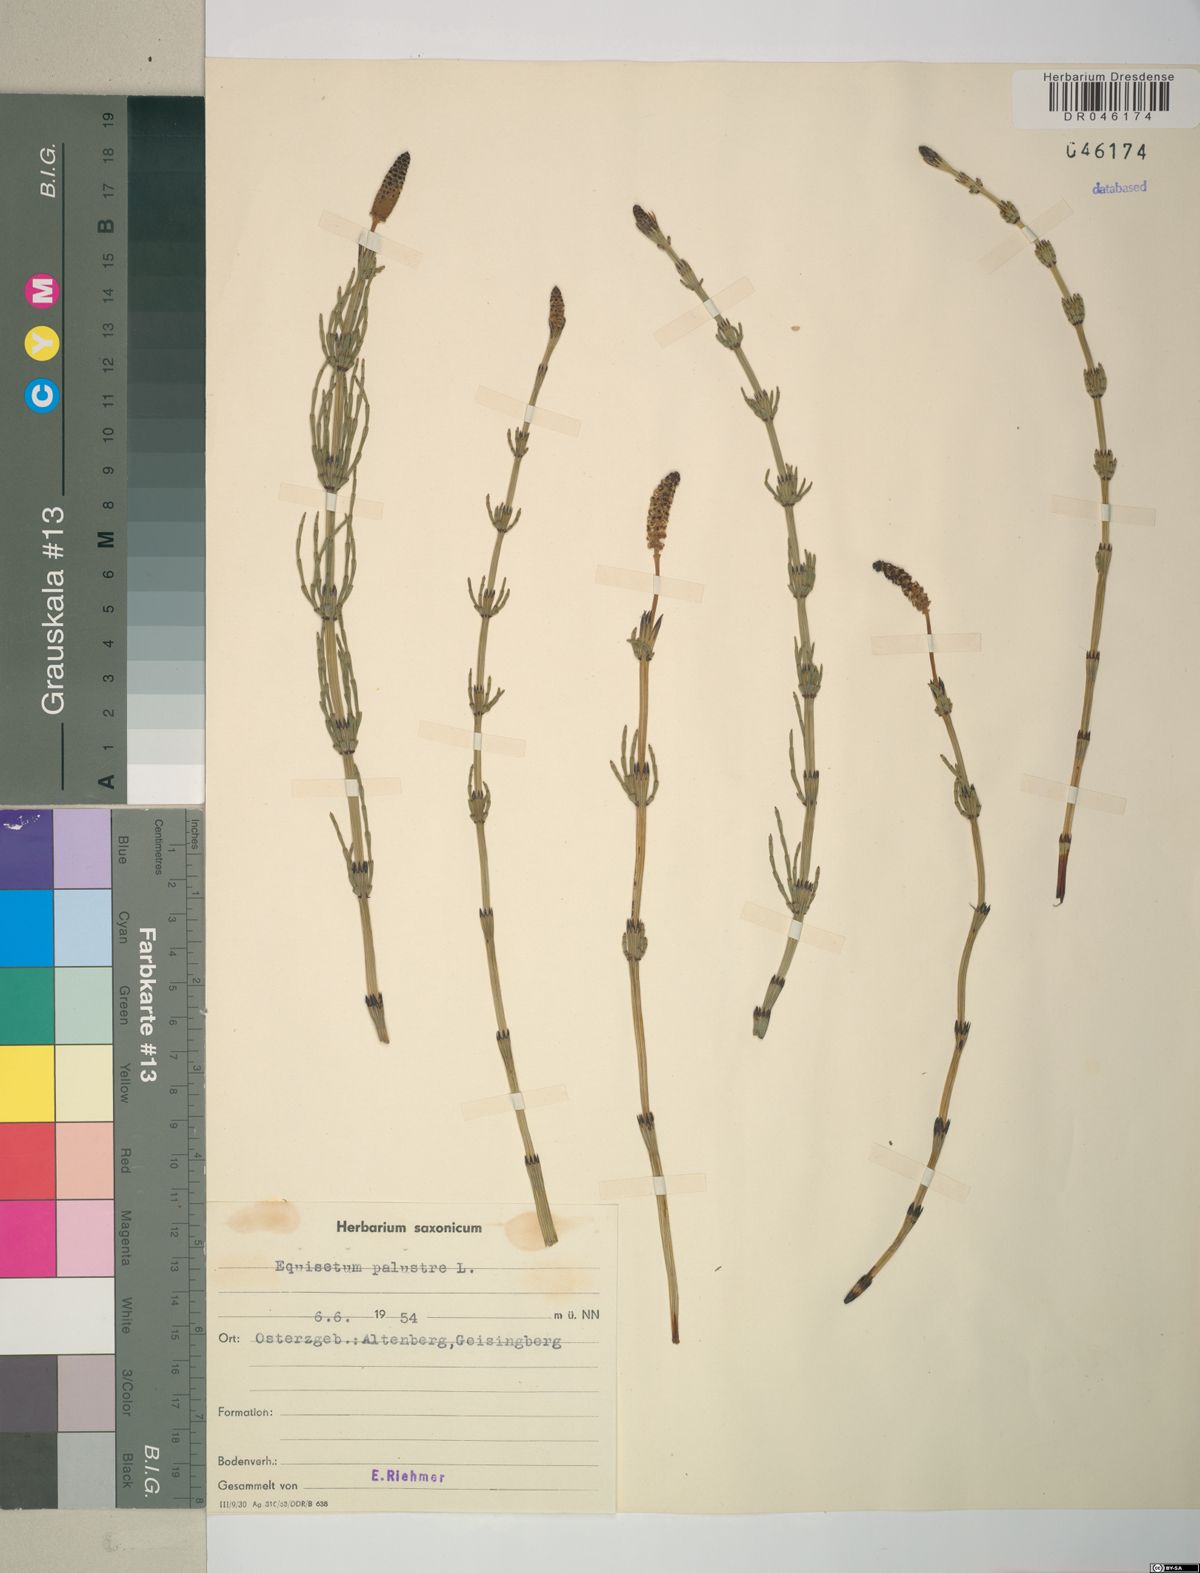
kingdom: Plantae
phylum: Tracheophyta
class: Polypodiopsida
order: Equisetales
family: Equisetaceae
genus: Equisetum
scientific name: Equisetum palustre
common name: Marsh horsetail
